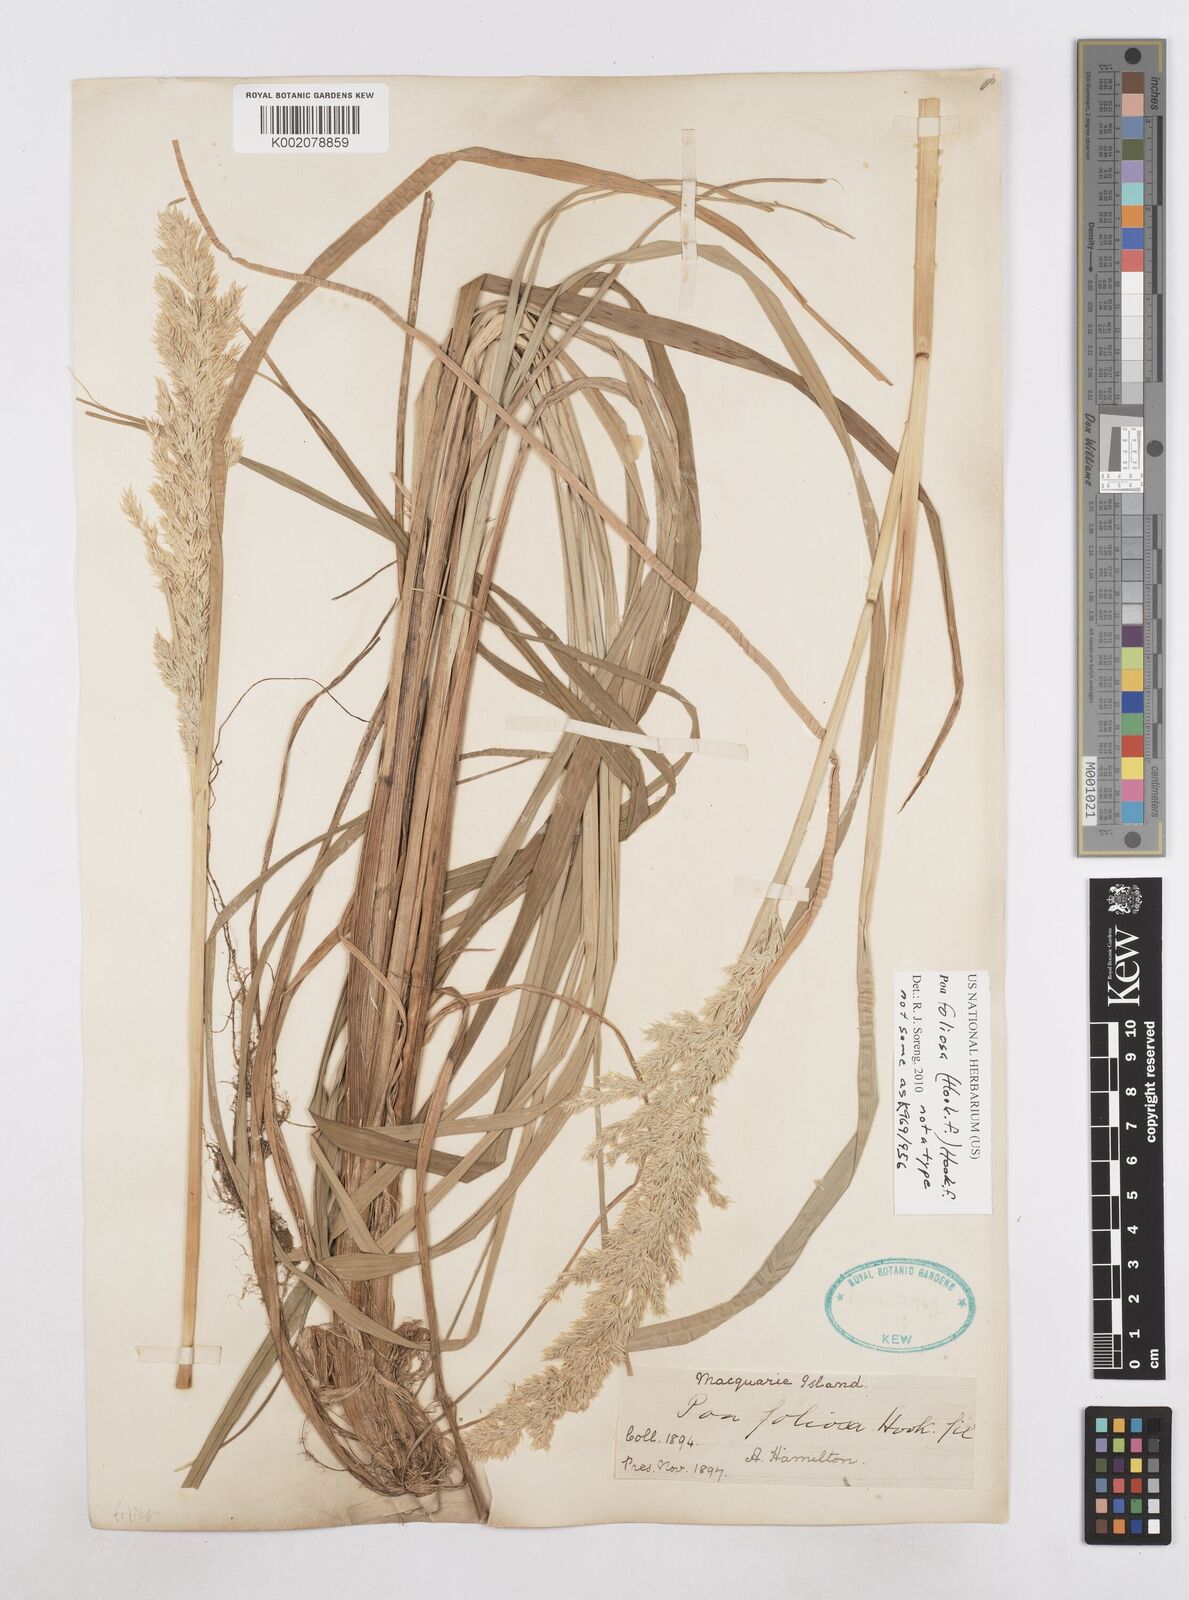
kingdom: Plantae
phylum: Tracheophyta
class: Liliopsida
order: Poales
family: Poaceae
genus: Poa
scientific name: Poa foliosa
